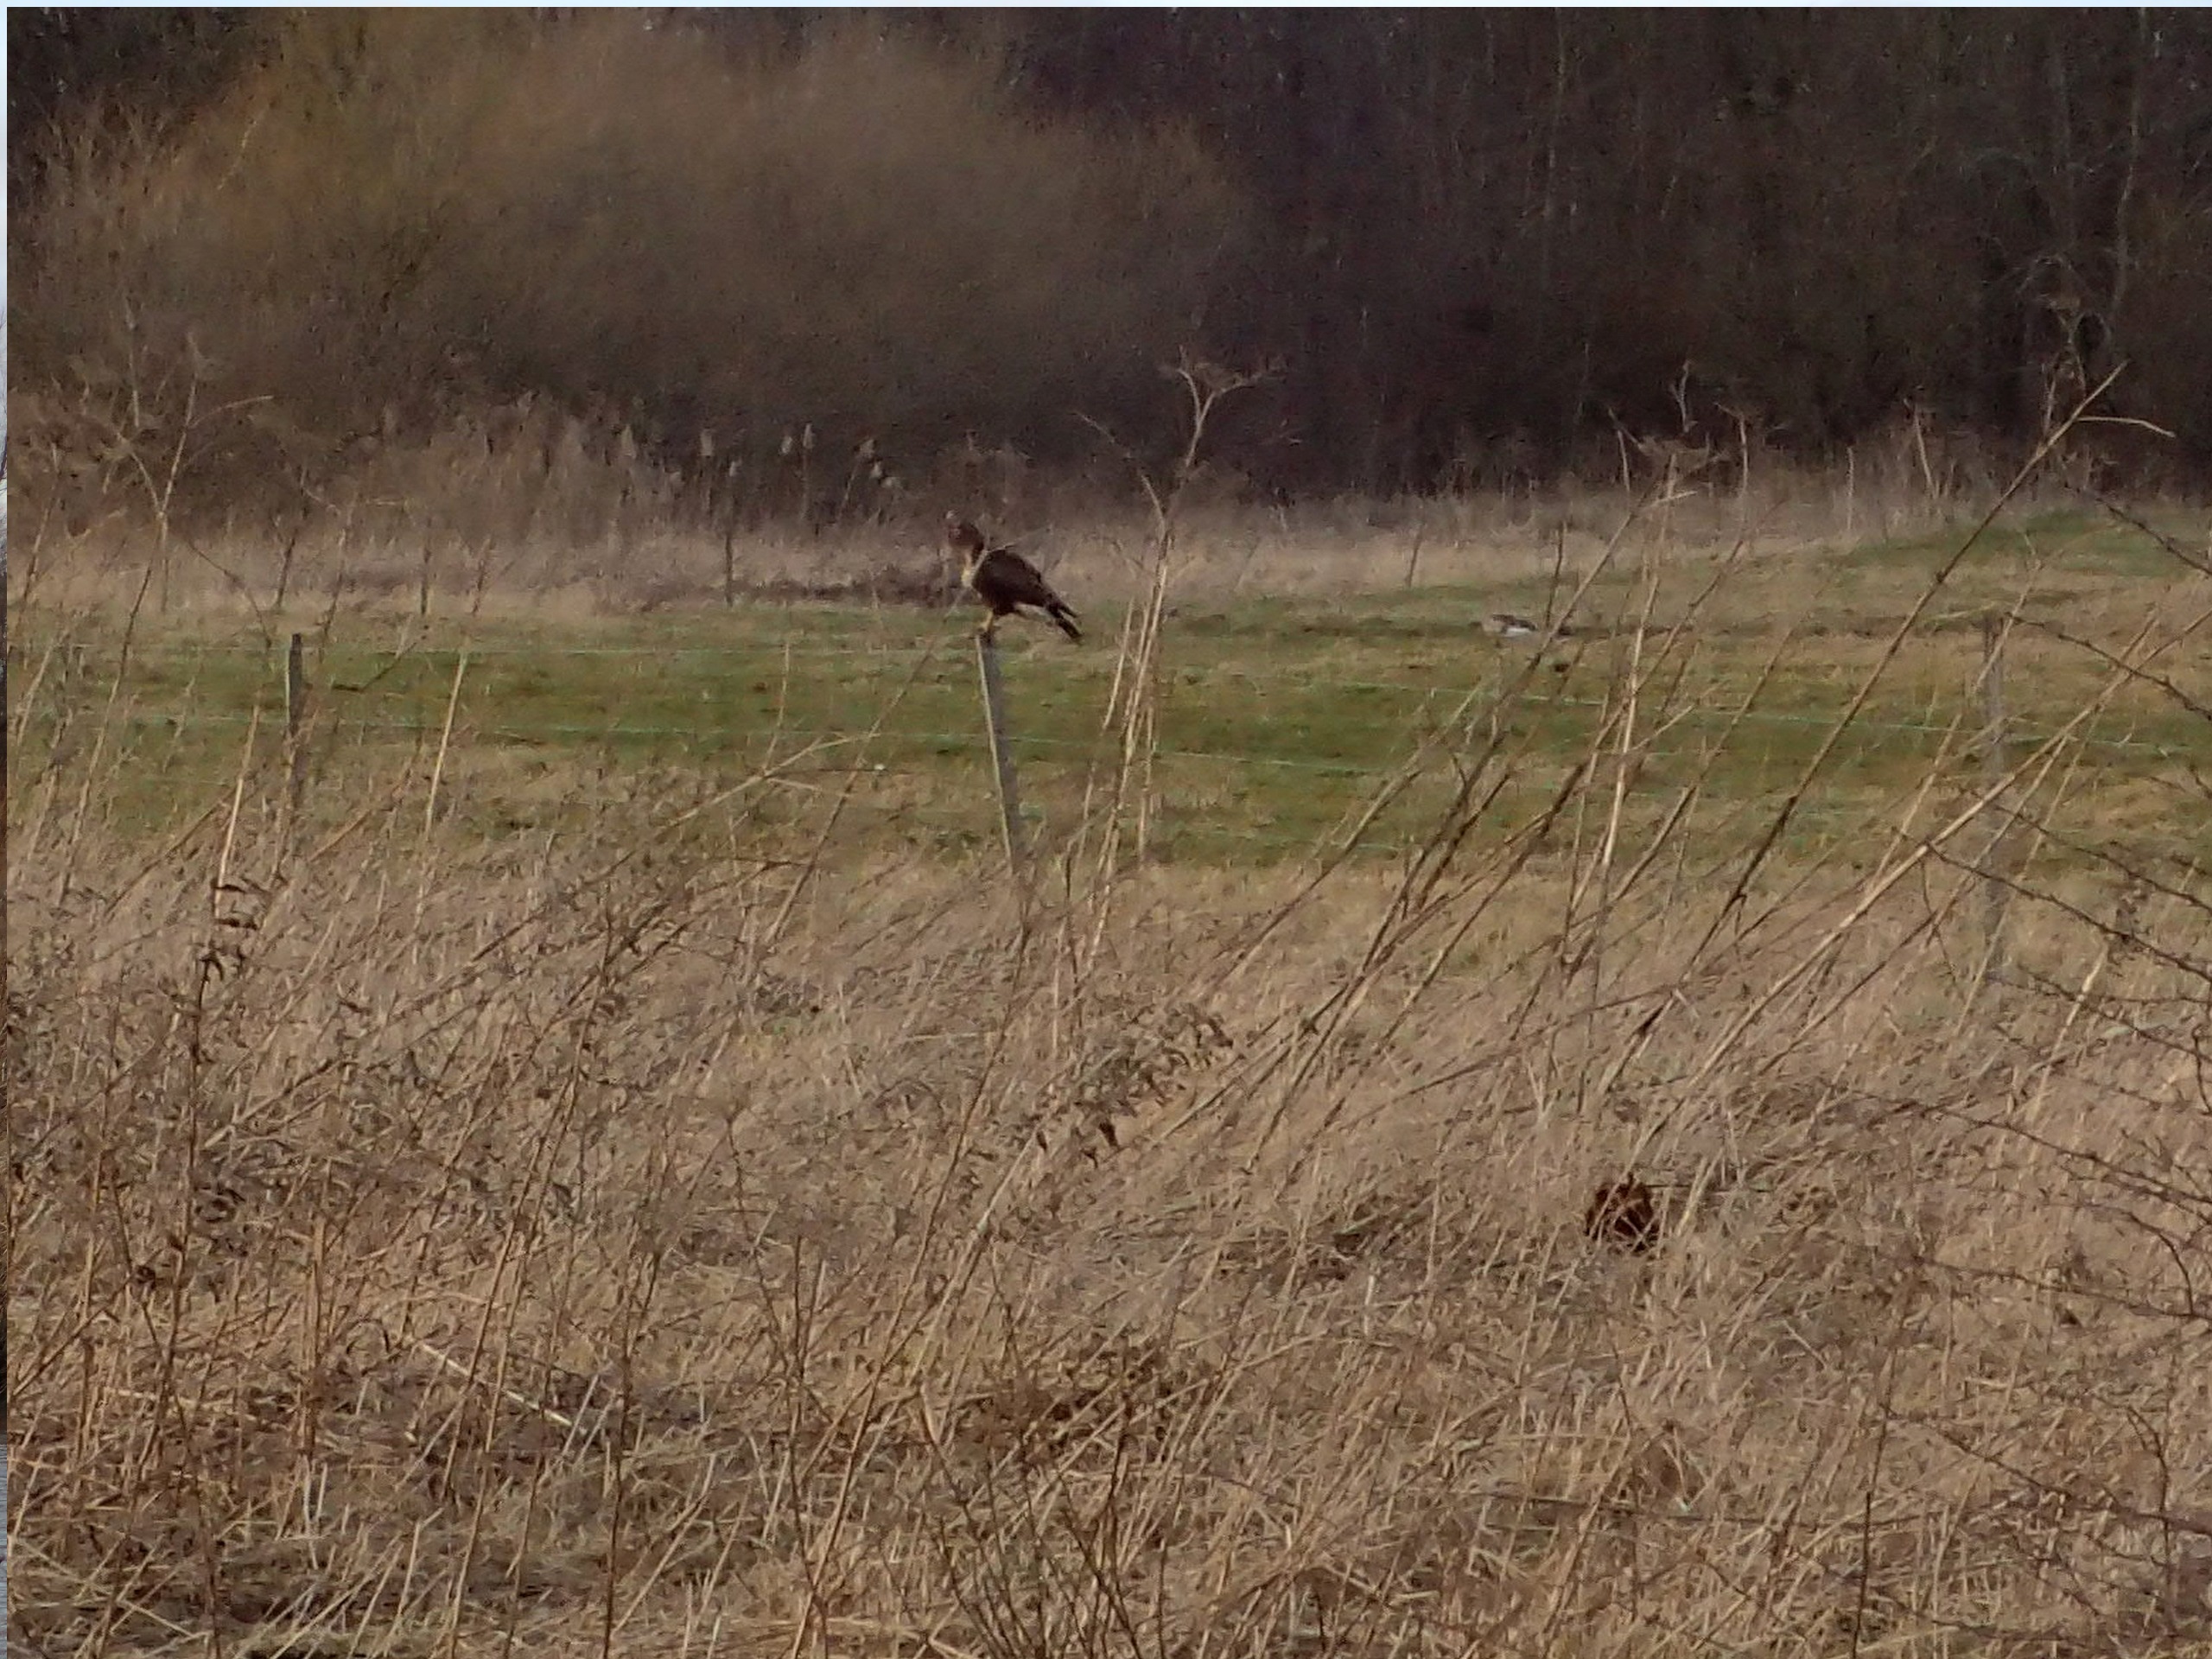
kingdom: Animalia
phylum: Chordata
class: Aves
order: Accipitriformes
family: Accipitridae
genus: Buteo
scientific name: Buteo buteo
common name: Musvåge
